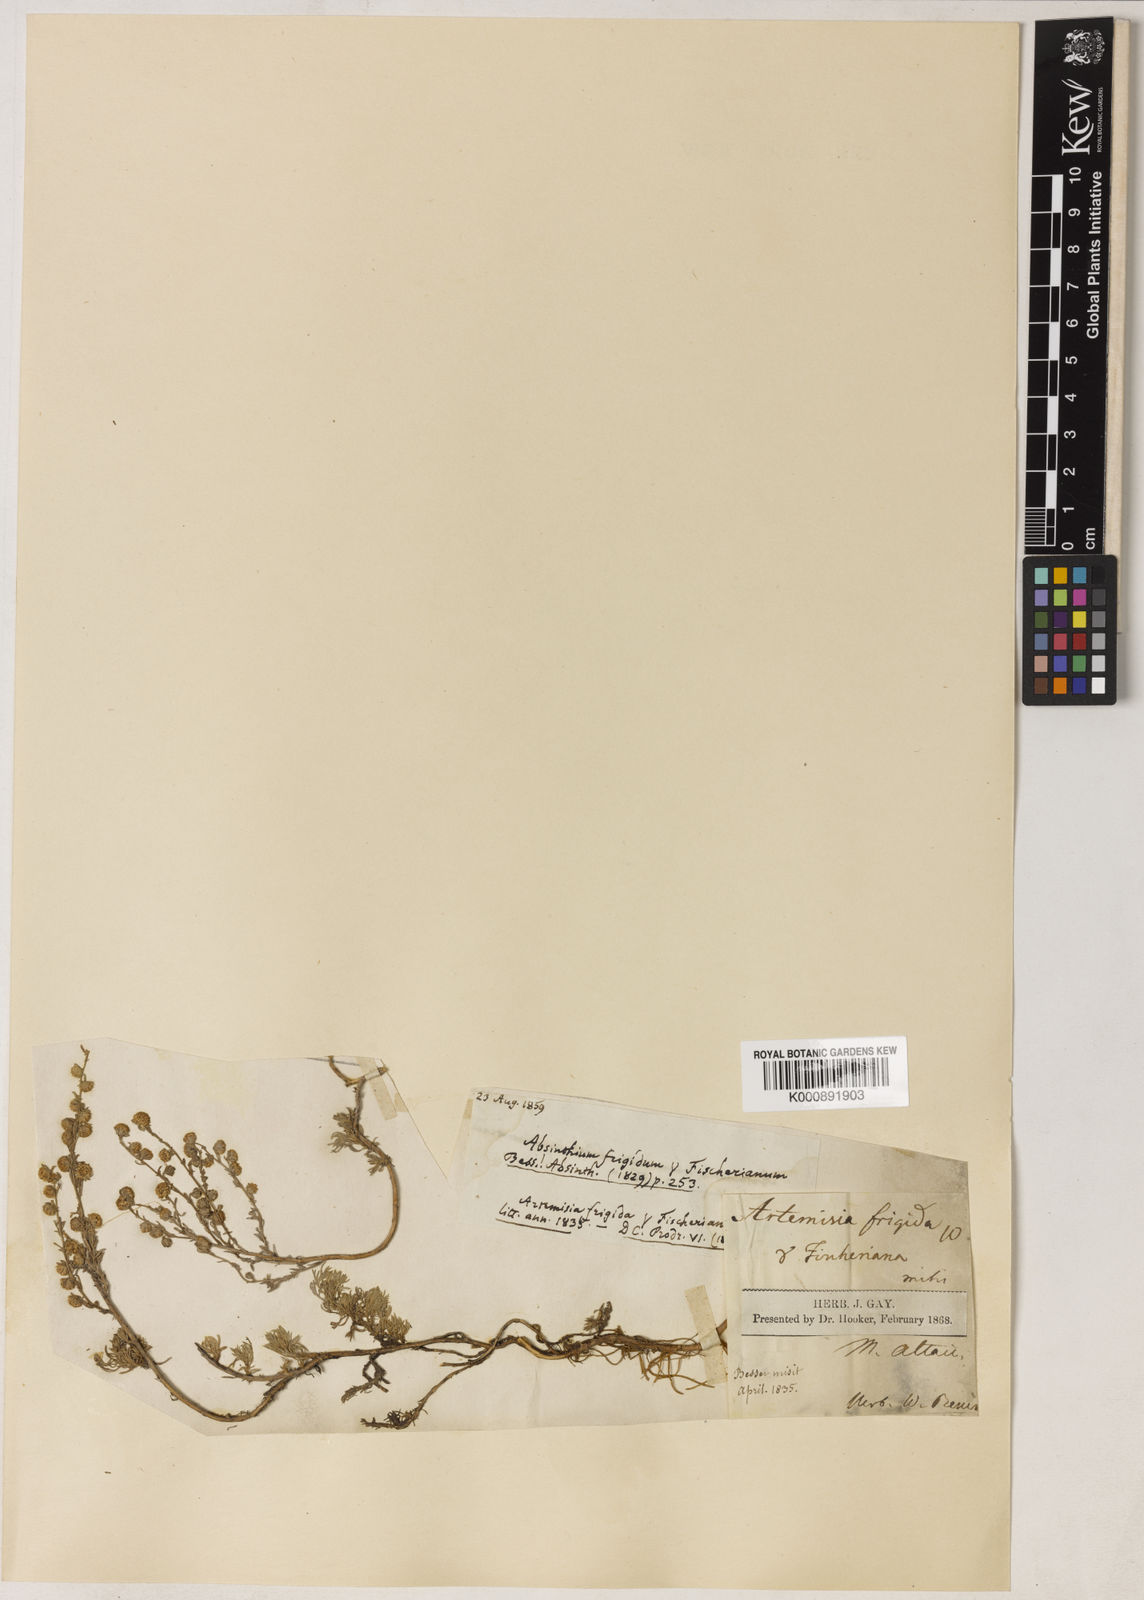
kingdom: Plantae
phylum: Tracheophyta
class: Magnoliopsida
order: Asterales
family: Asteraceae
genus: Artemisia
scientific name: Artemisia adamsii
